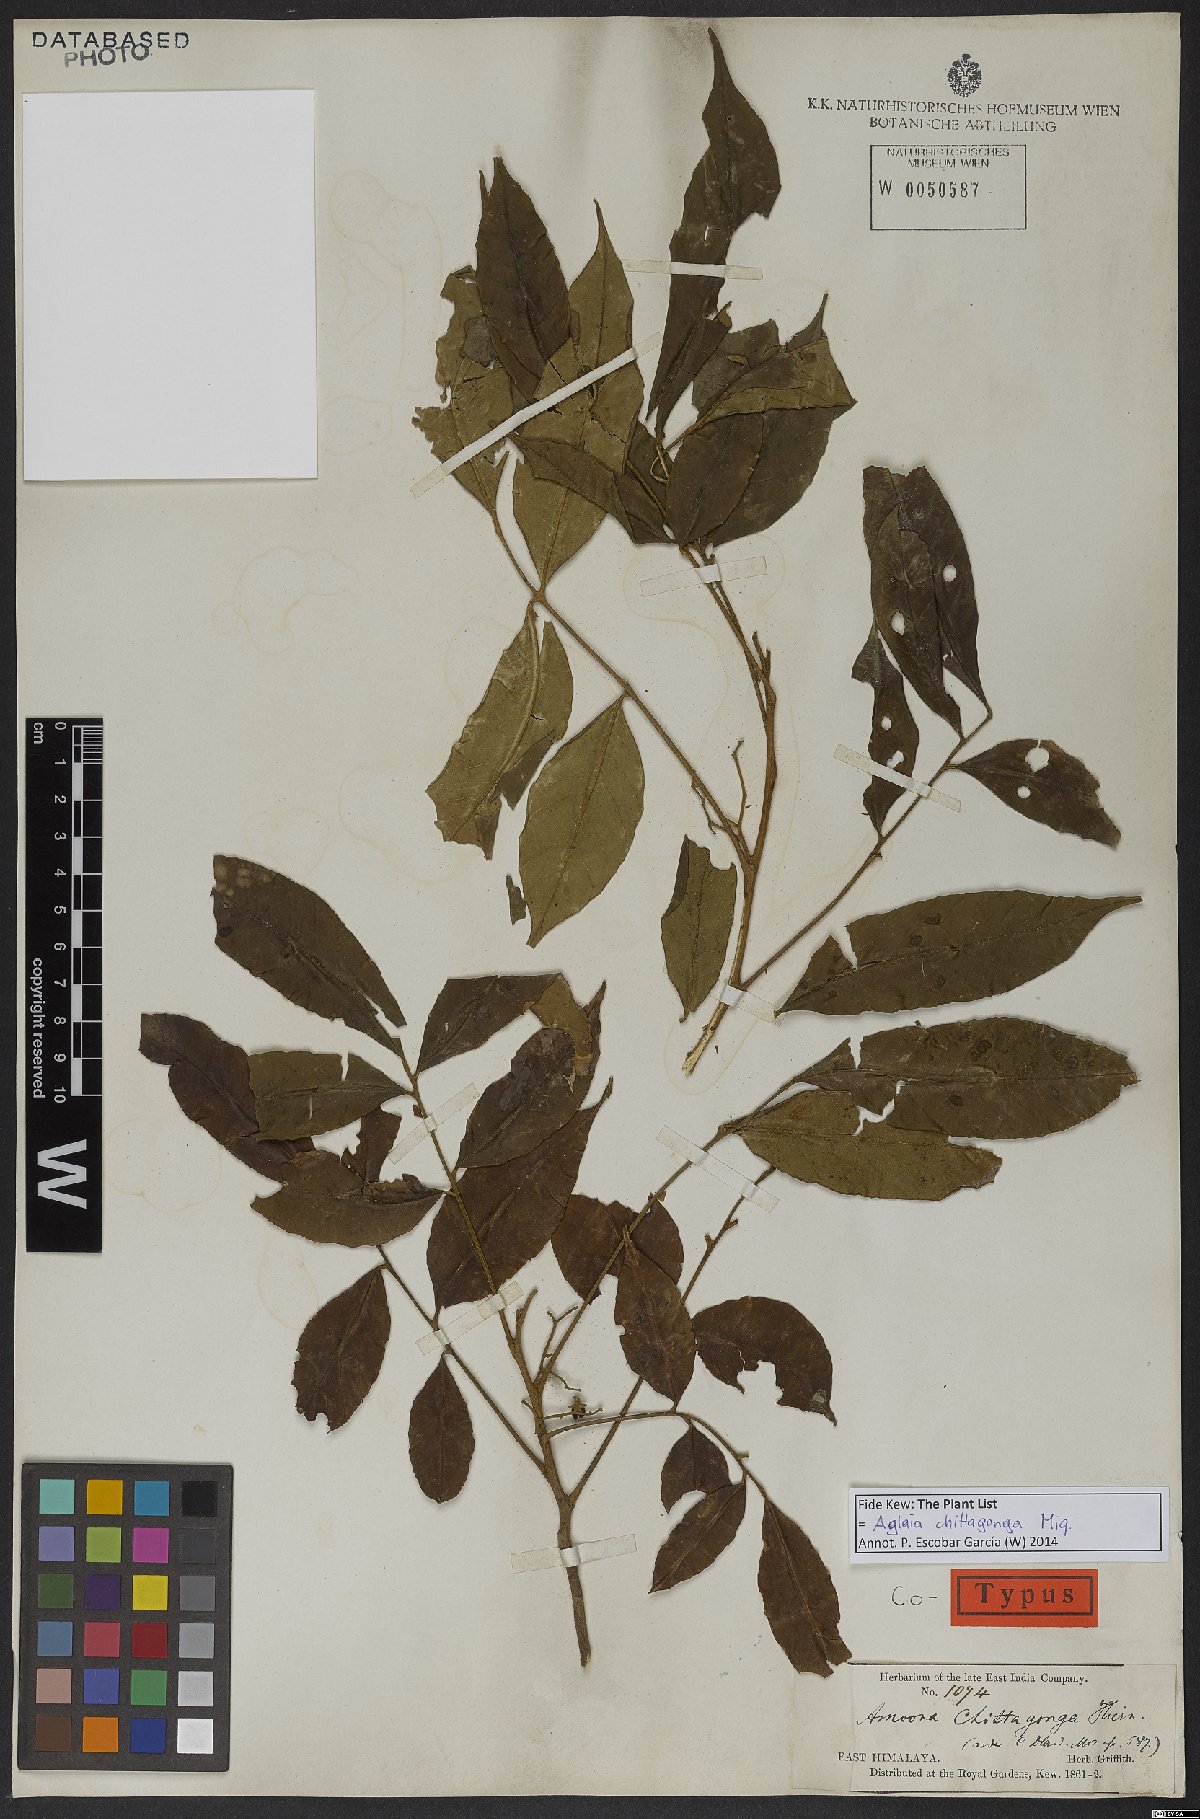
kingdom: Plantae
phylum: Tracheophyta
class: Magnoliopsida
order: Sapindales
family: Meliaceae
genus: Aglaia
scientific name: Aglaia chittagonga
